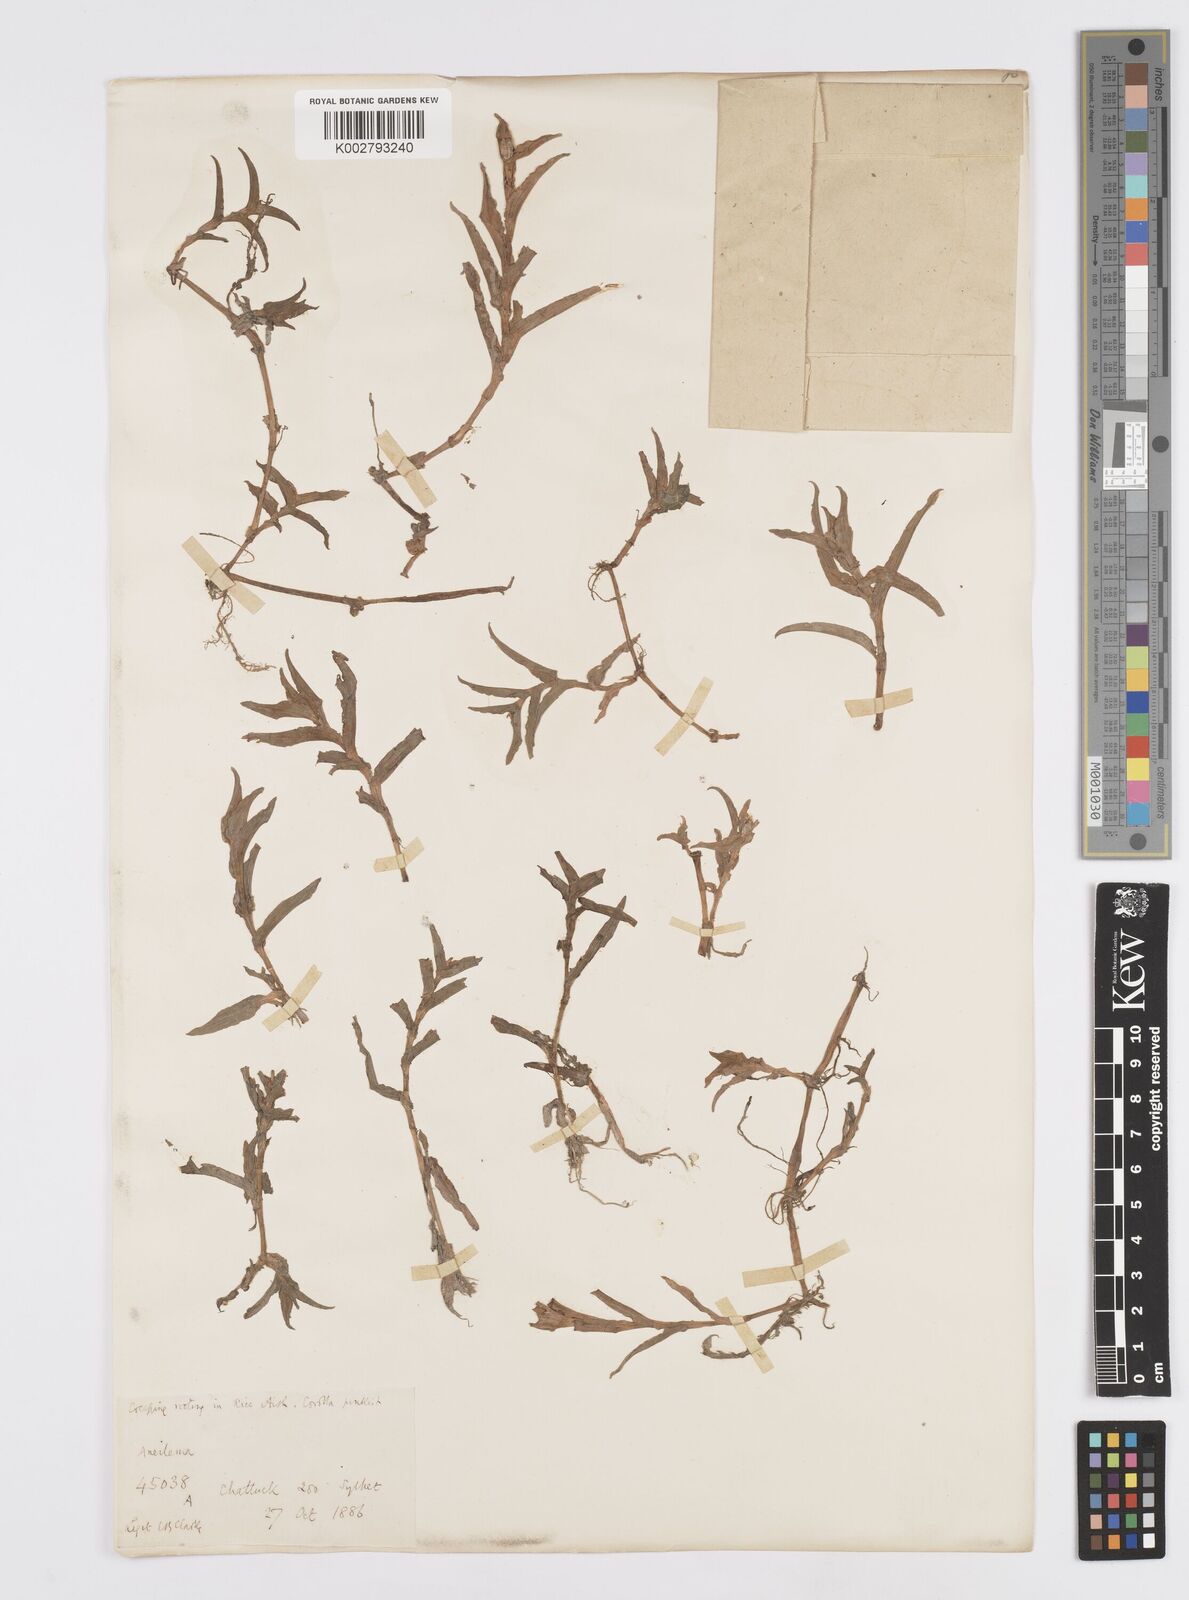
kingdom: Plantae
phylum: Tracheophyta
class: Liliopsida
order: Commelinales
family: Commelinaceae
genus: Murdannia
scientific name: Murdannia blumei
